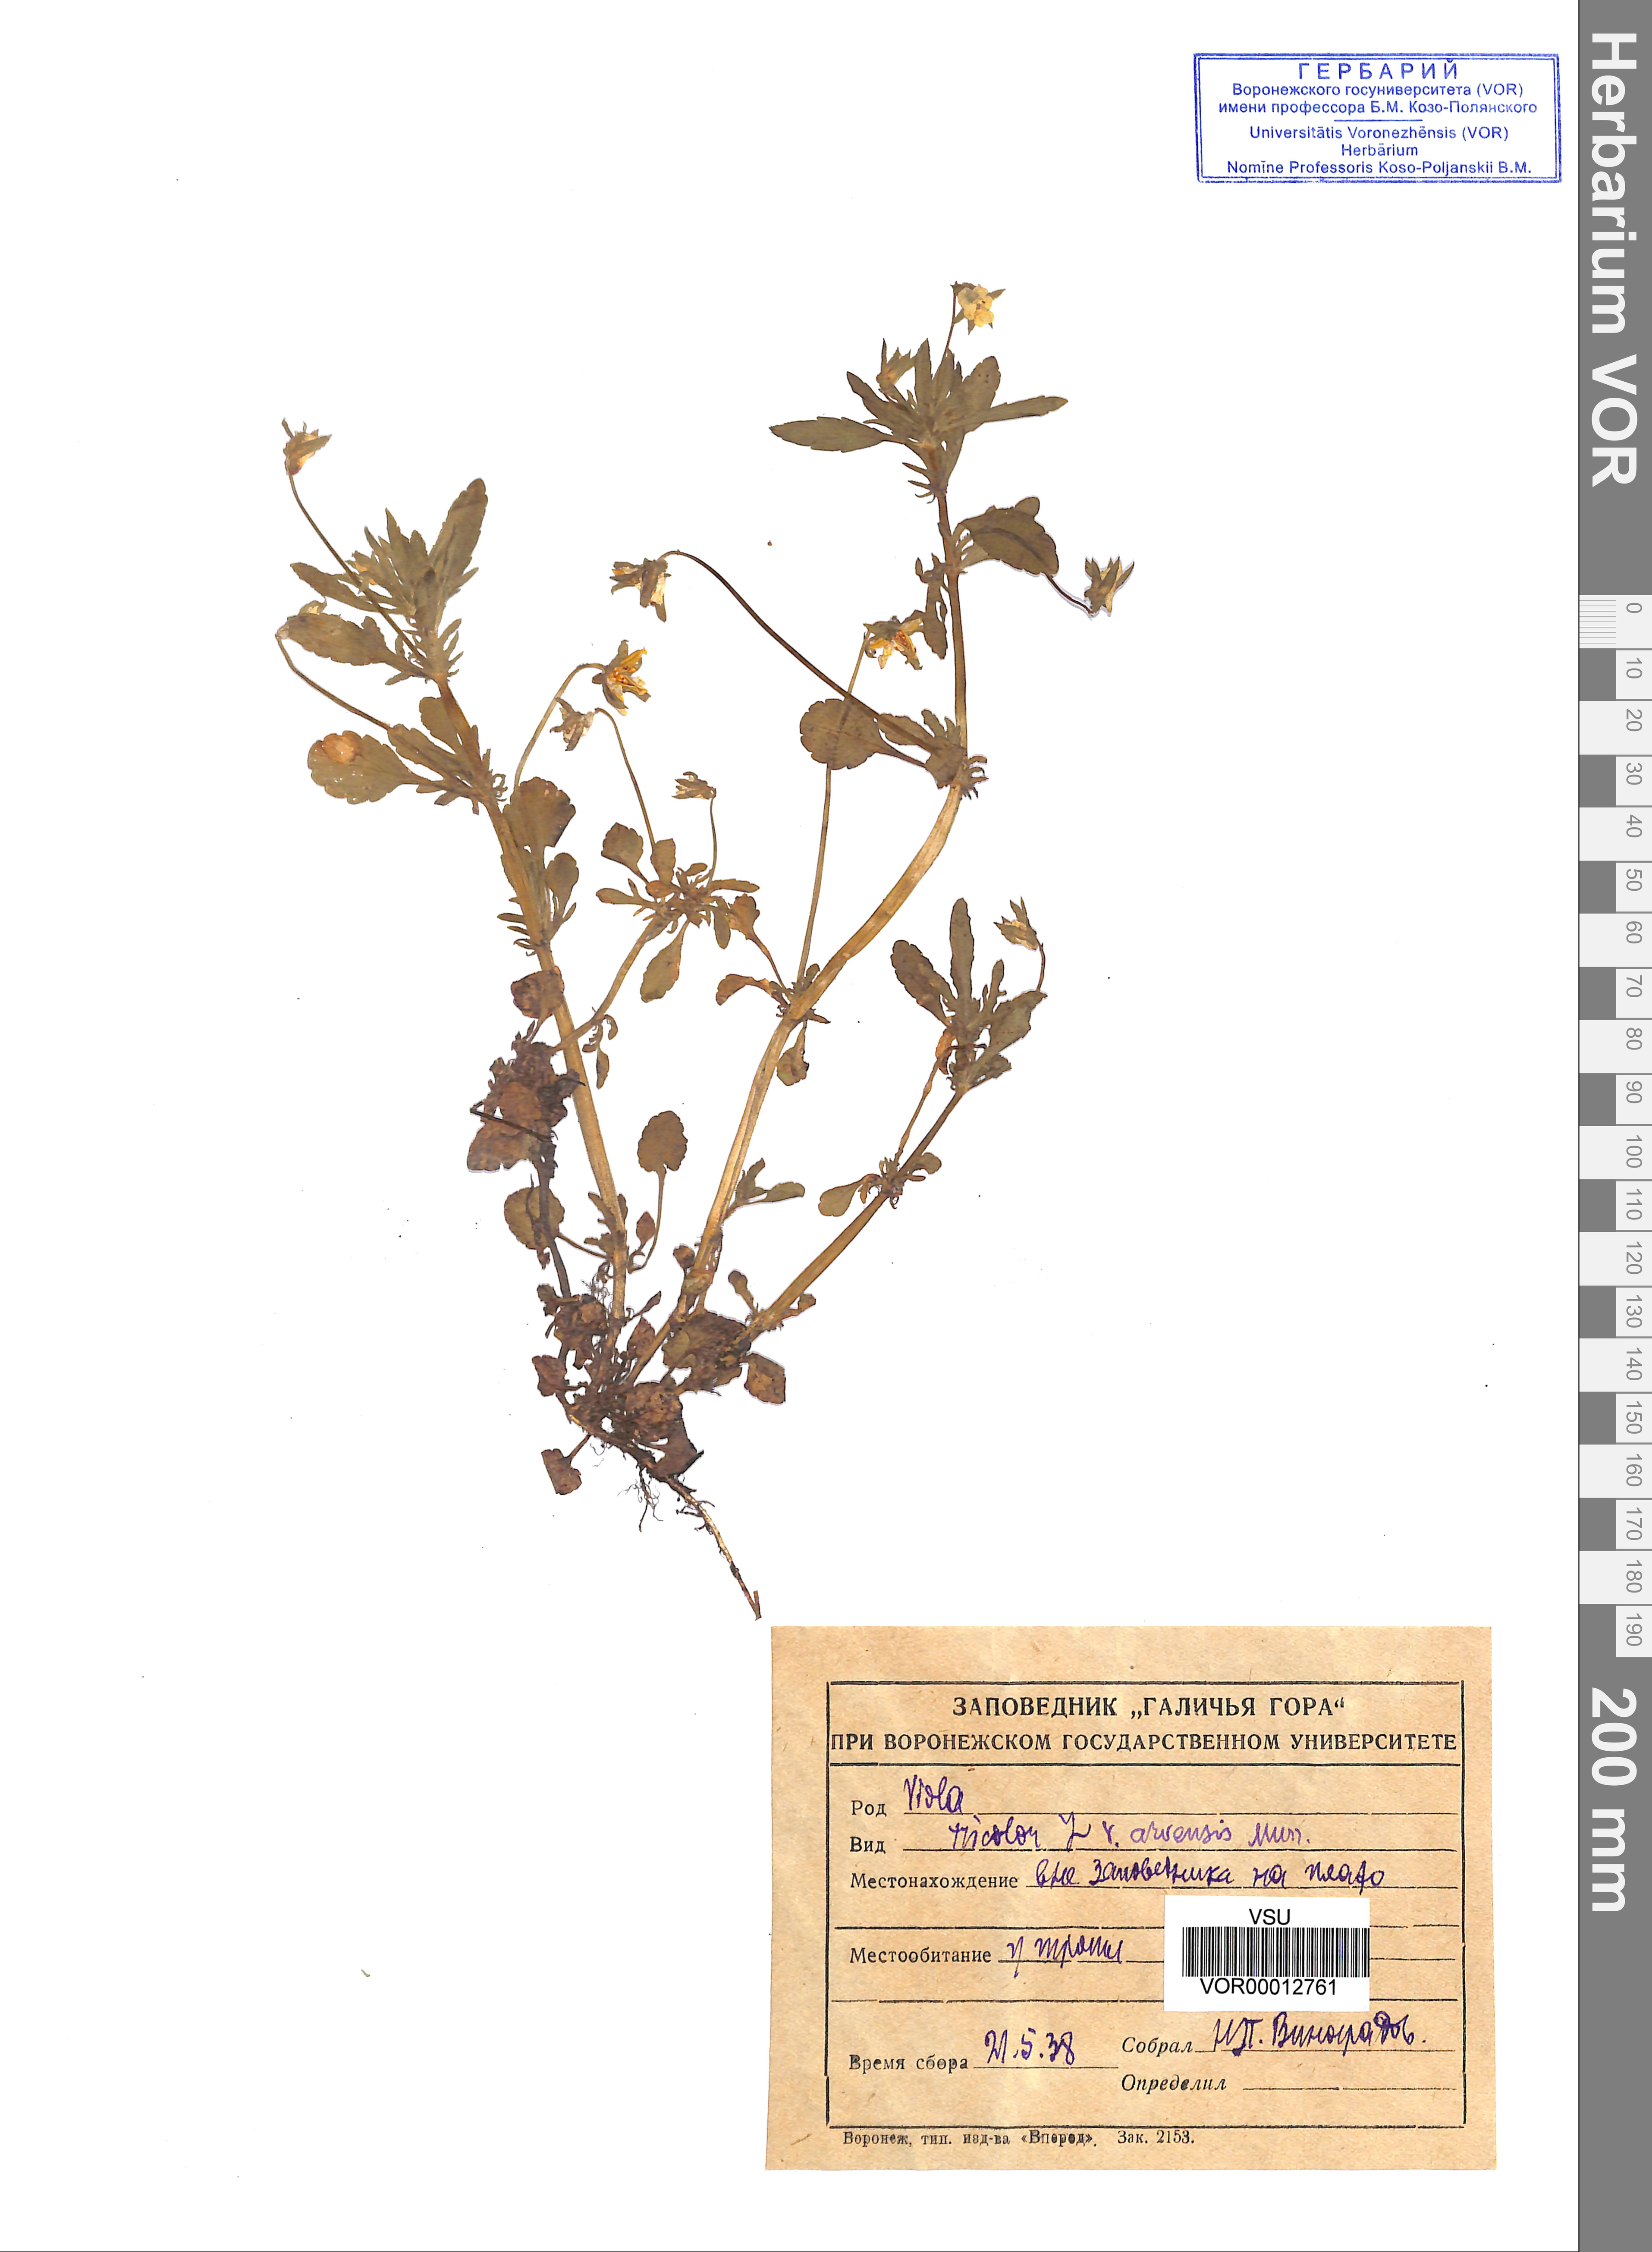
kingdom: Plantae
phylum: Tracheophyta
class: Magnoliopsida
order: Malpighiales
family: Violaceae
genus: Viola
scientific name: Viola tricolor
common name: Pansy
